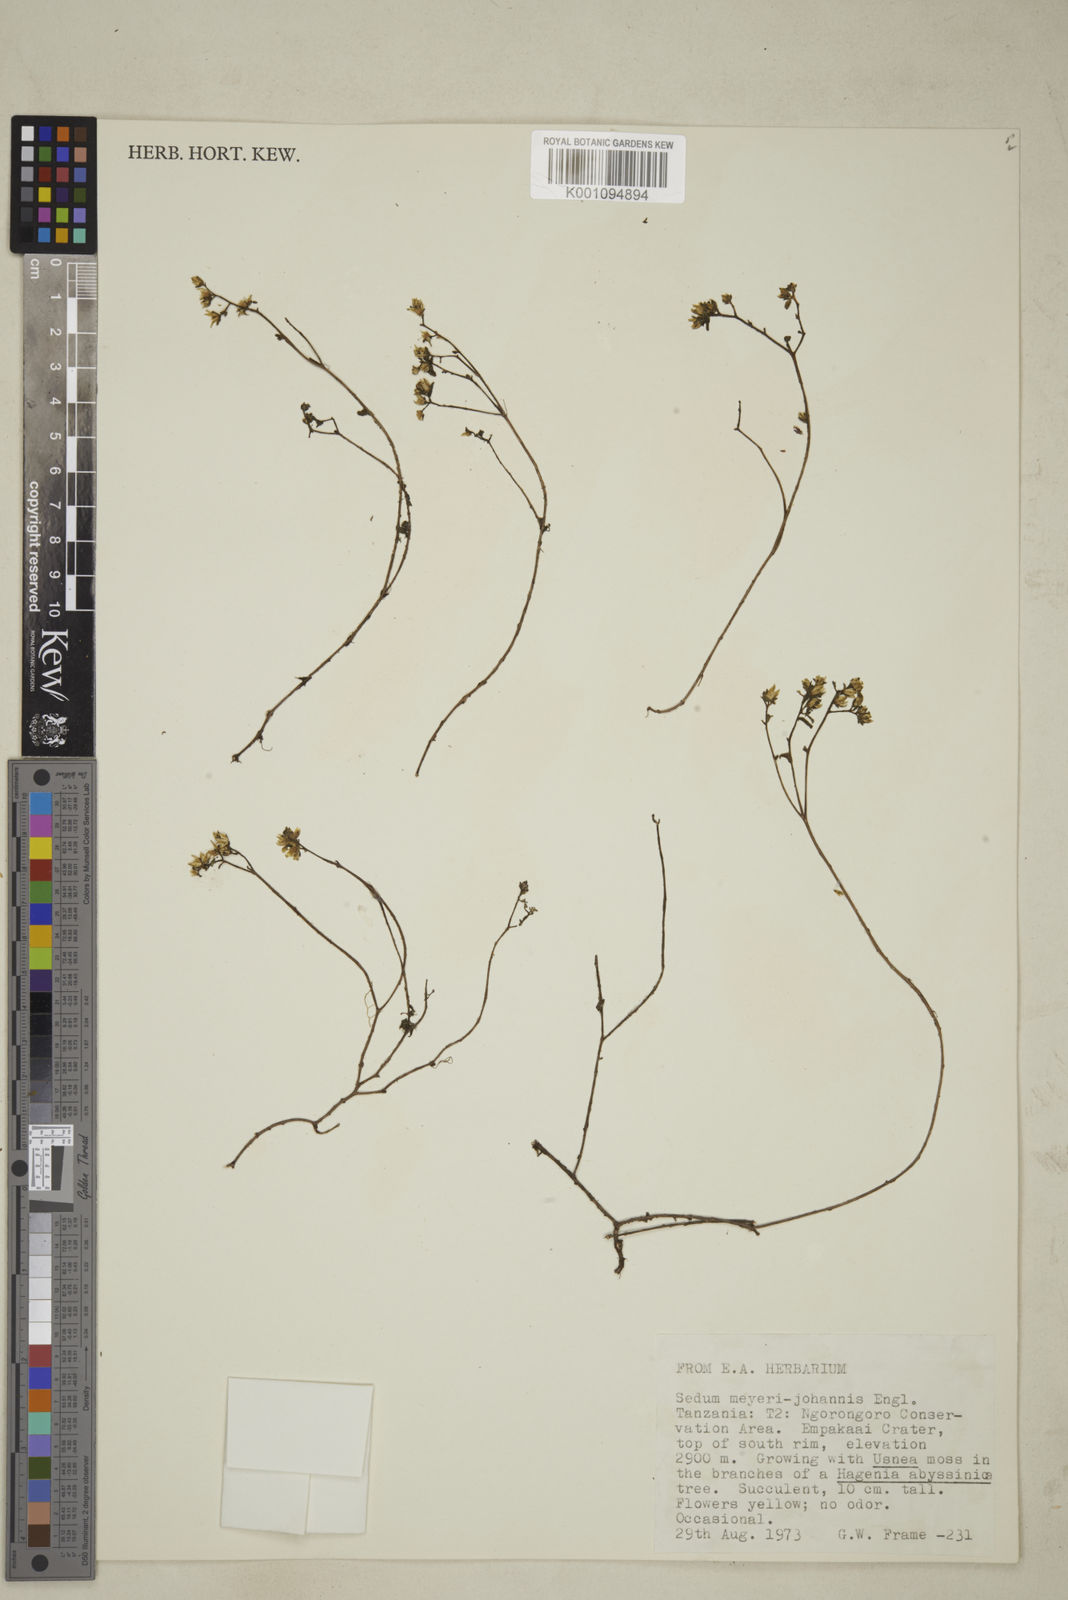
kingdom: Plantae
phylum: Tracheophyta
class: Magnoliopsida
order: Saxifragales
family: Crassulaceae
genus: Sedum
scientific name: Sedum meyeri-johannis
